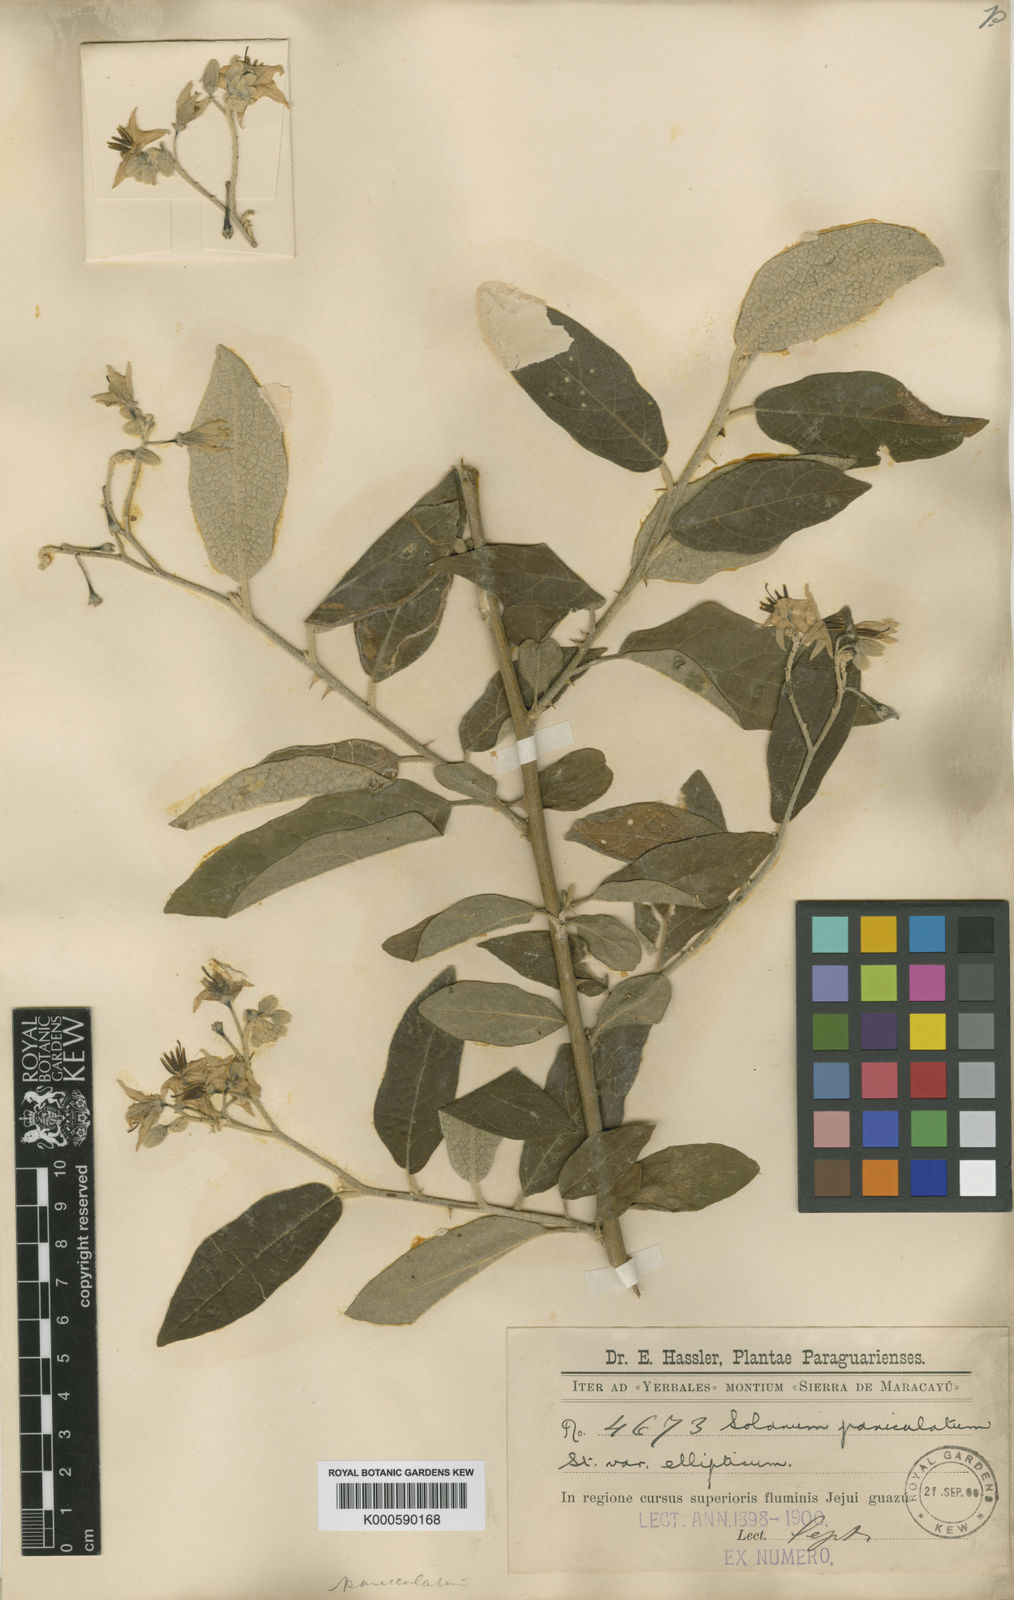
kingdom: Plantae
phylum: Tracheophyta
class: Magnoliopsida
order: Solanales
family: Solanaceae
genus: Solanum
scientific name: Solanum paniculatum
